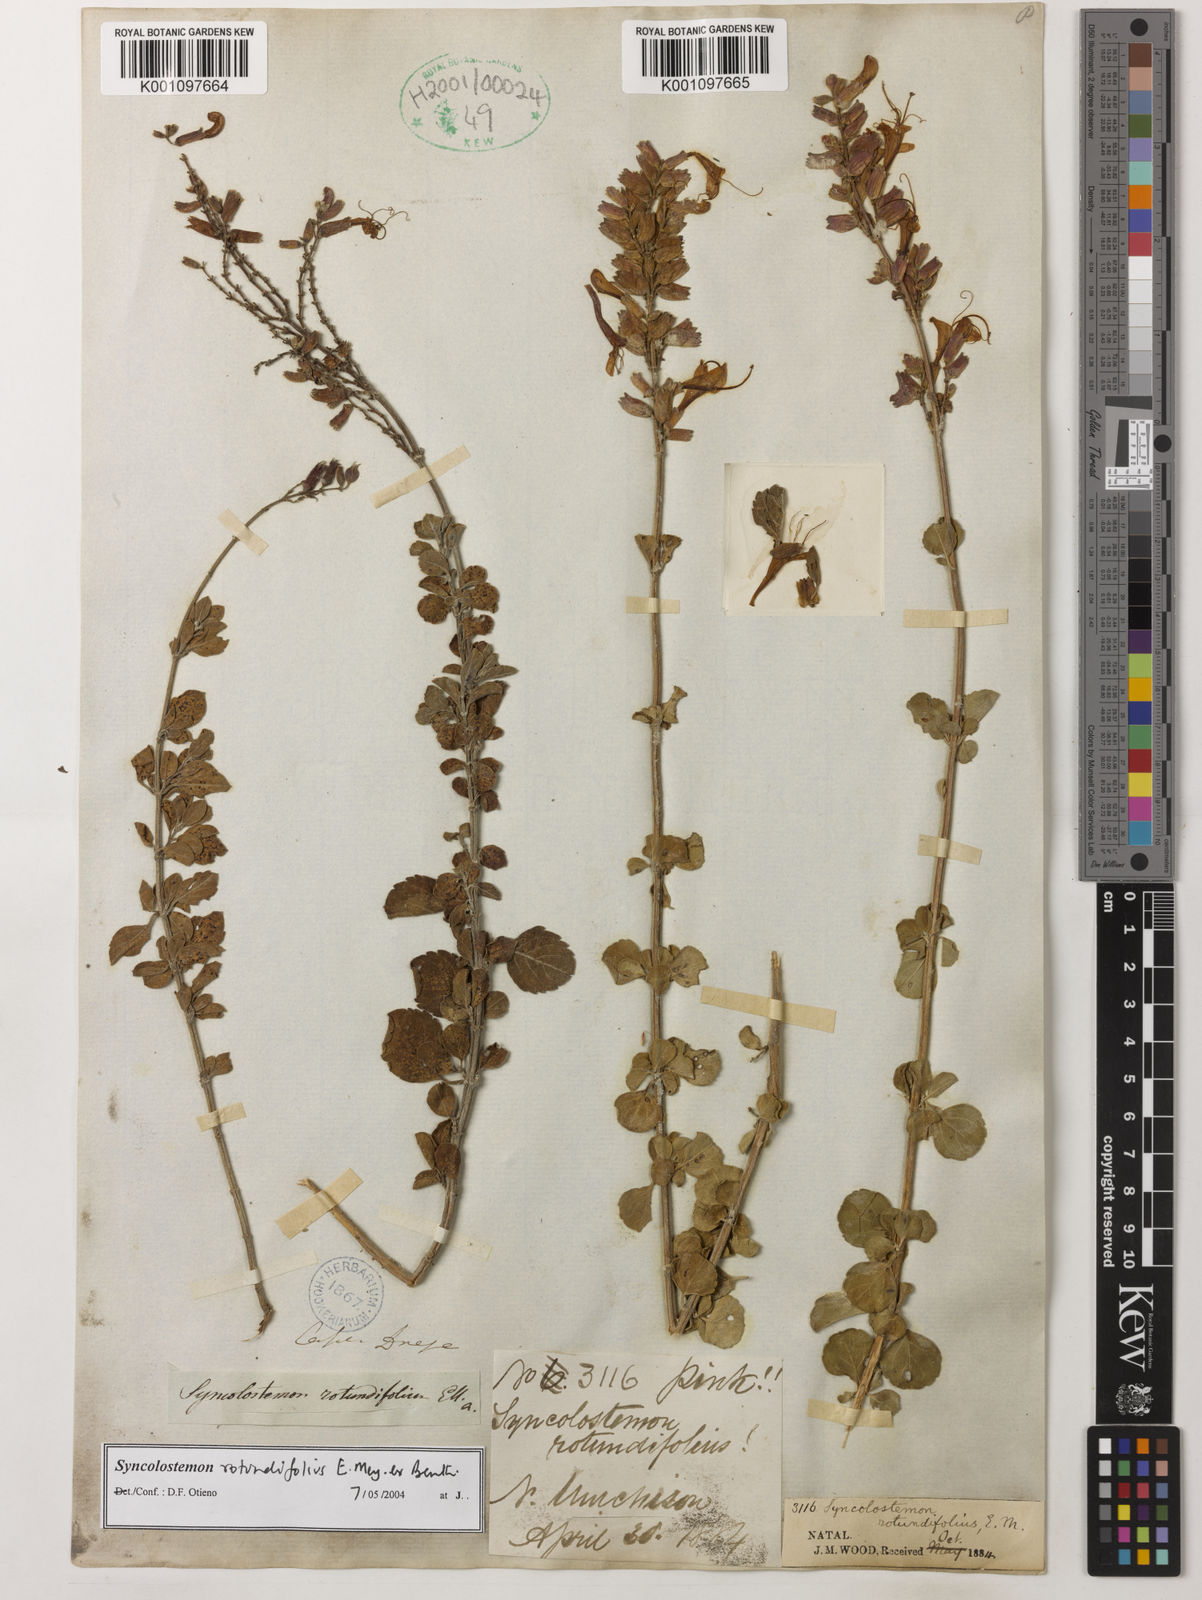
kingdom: Plantae
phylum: Tracheophyta
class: Magnoliopsida
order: Lamiales
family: Lamiaceae
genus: Syncolostemon
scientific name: Syncolostemon rotundifolius
